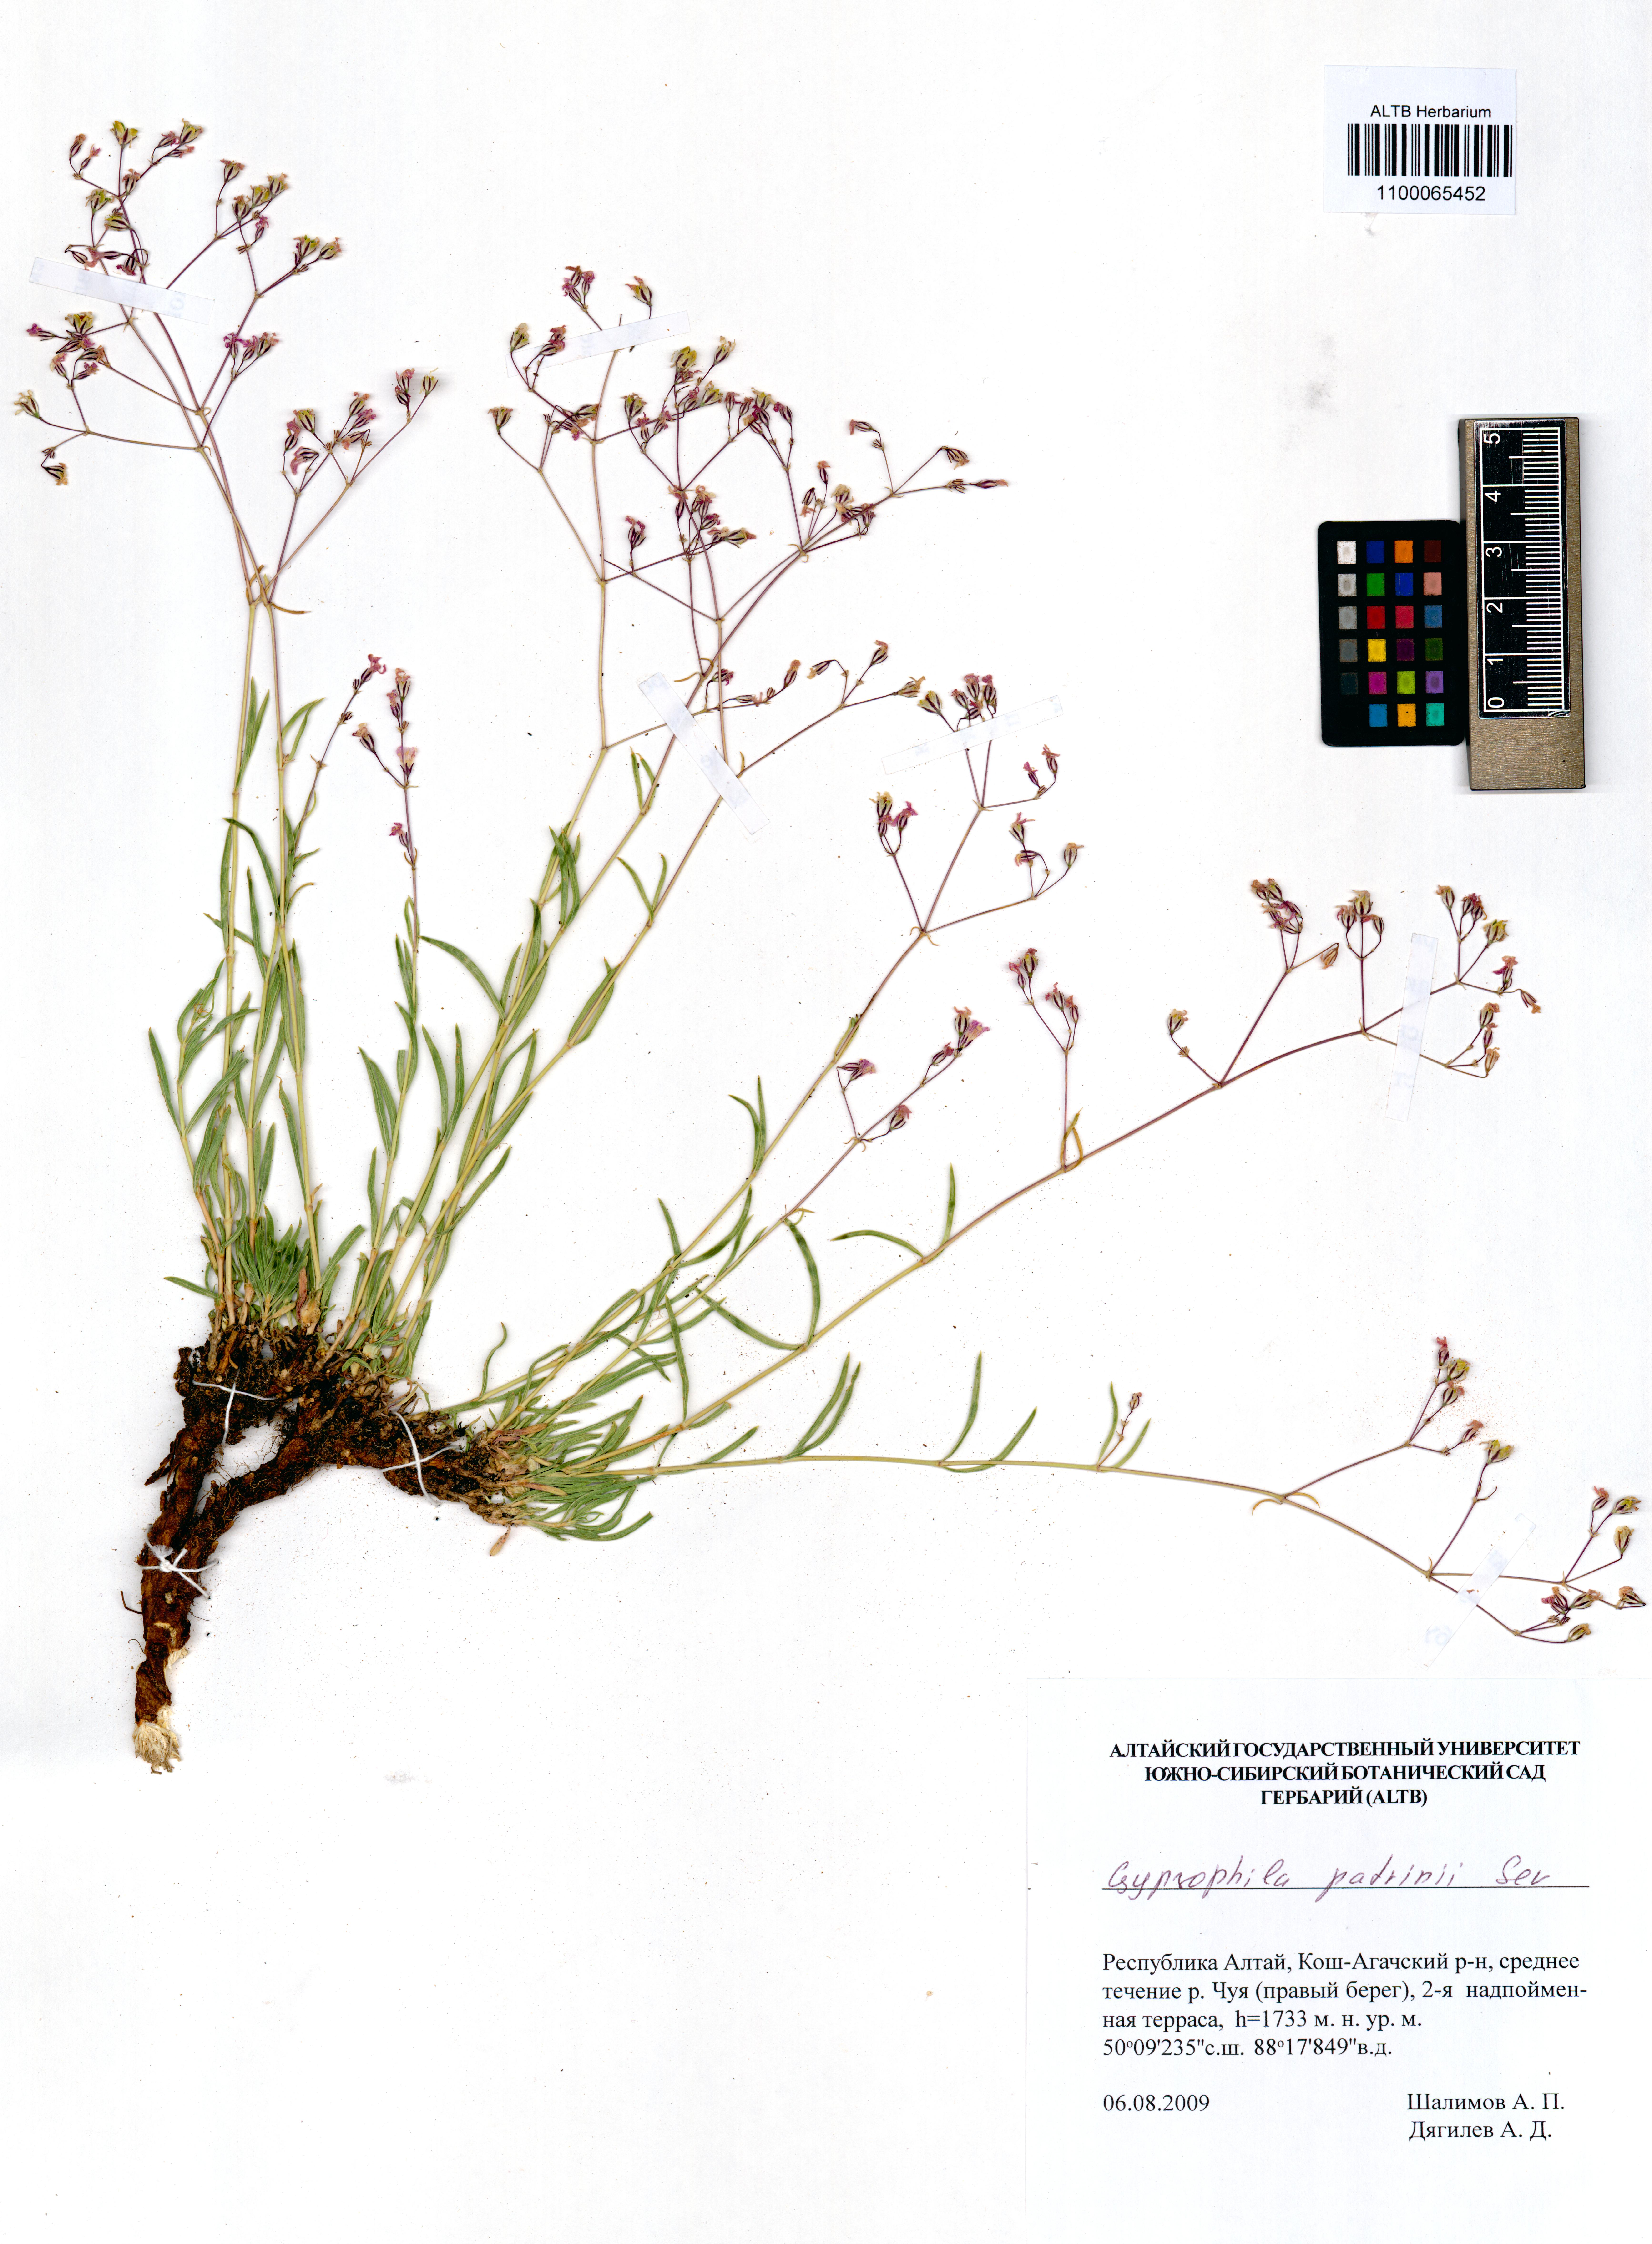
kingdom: Plantae
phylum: Tracheophyta
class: Magnoliopsida
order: Caryophyllales
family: Caryophyllaceae
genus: Gypsophila
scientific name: Gypsophila patrinii
